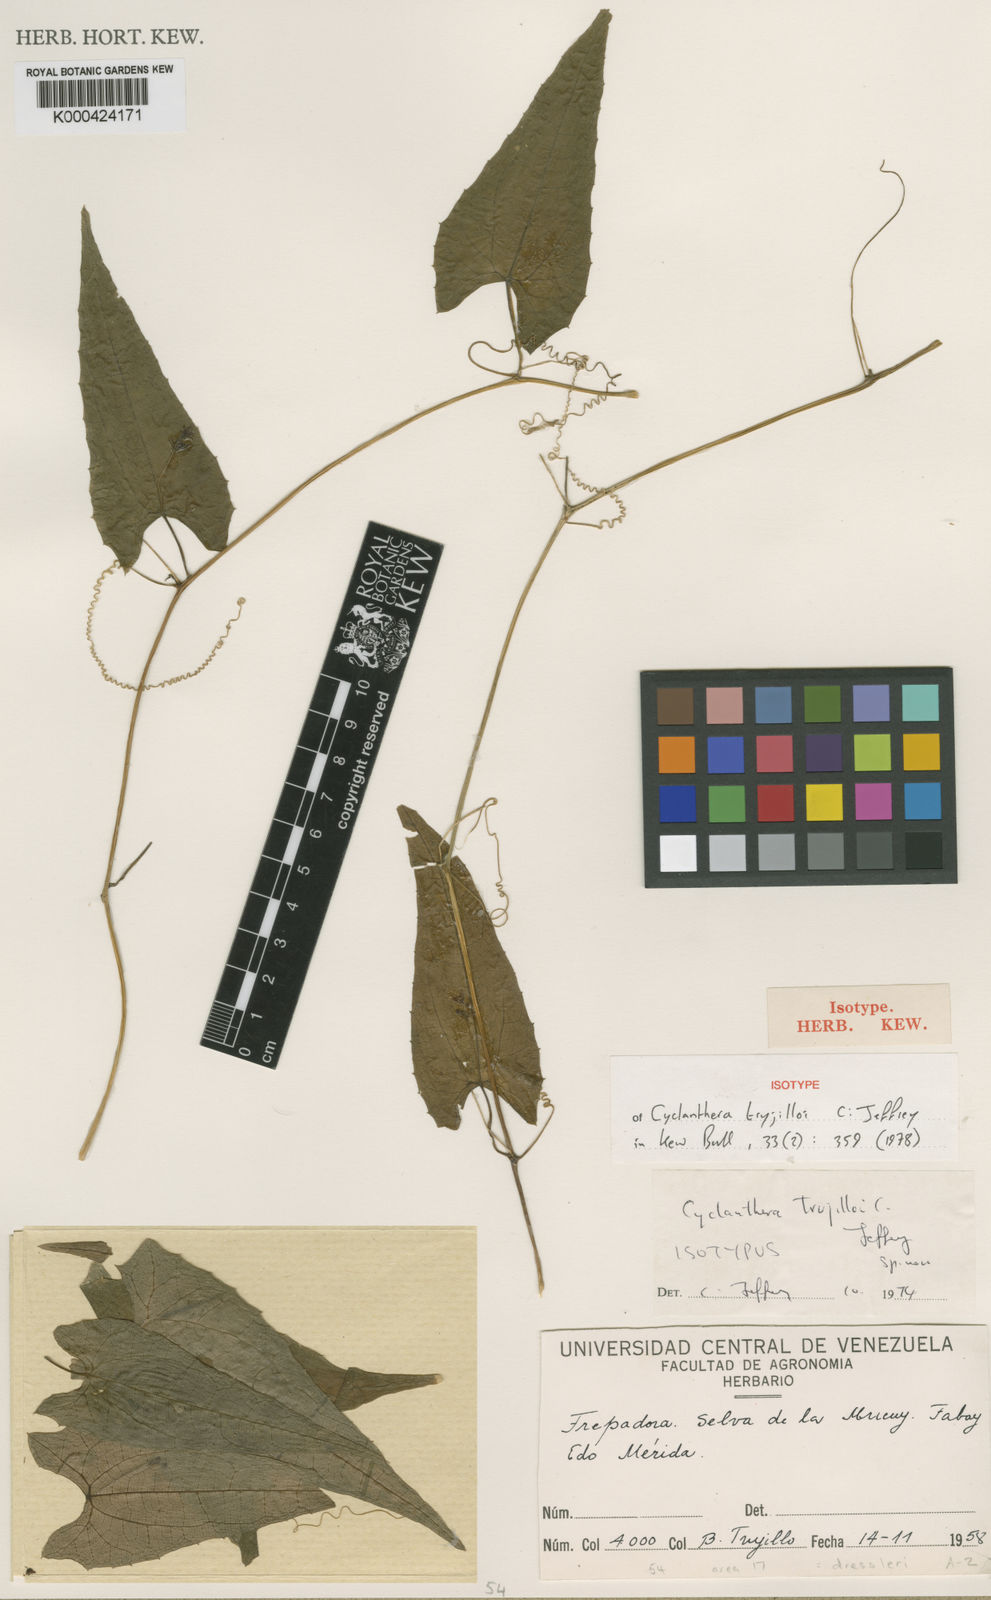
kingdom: Plantae
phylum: Tracheophyta
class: Magnoliopsida
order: Cucurbitales
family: Cucurbitaceae
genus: Cyclanthera
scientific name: Cyclanthera dressleri
